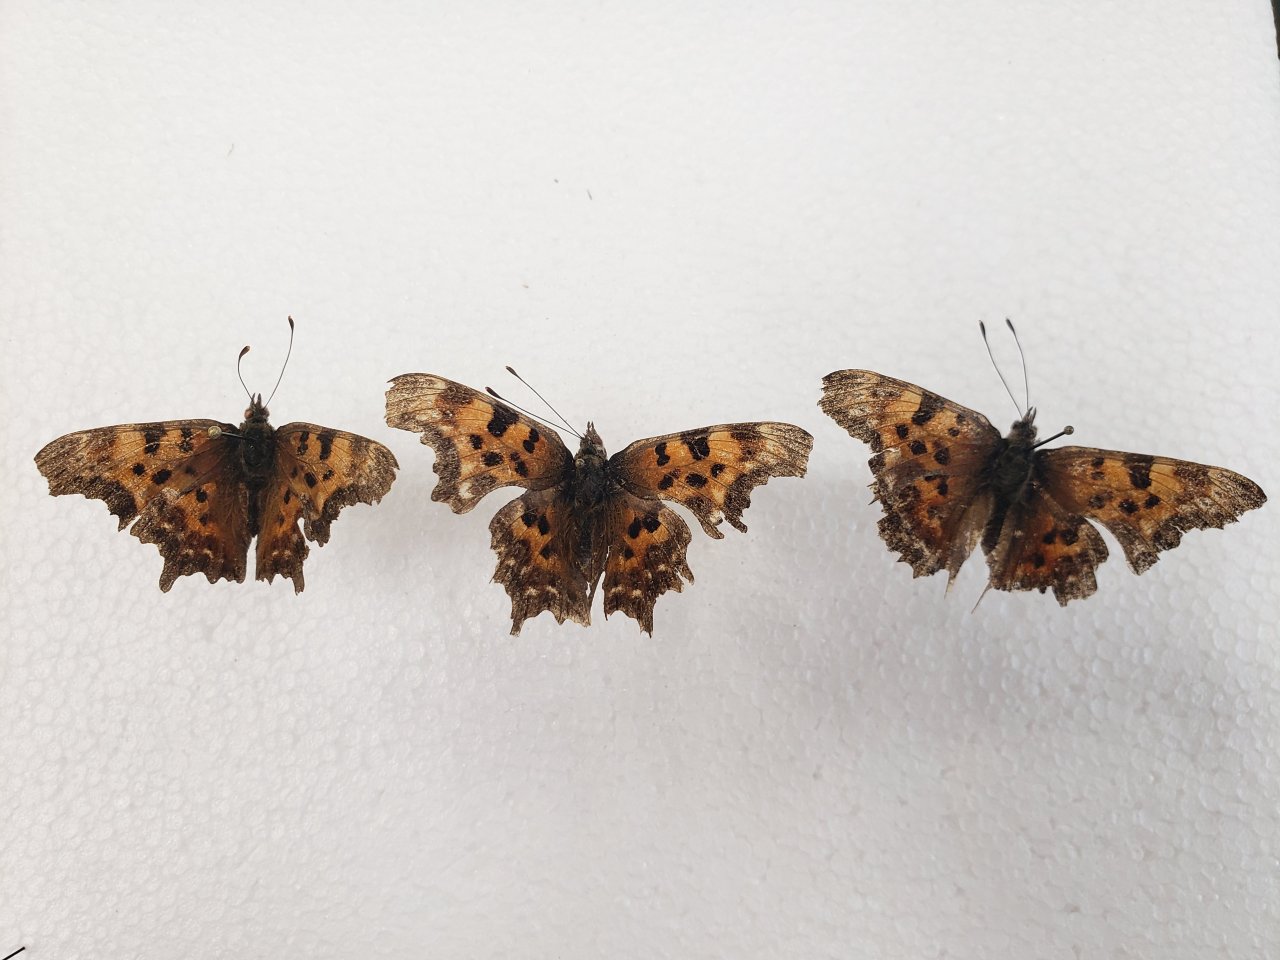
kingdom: Animalia
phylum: Arthropoda
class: Insecta
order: Lepidoptera
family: Nymphalidae
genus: Polygonia
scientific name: Polygonia faunus
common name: Green Comma
